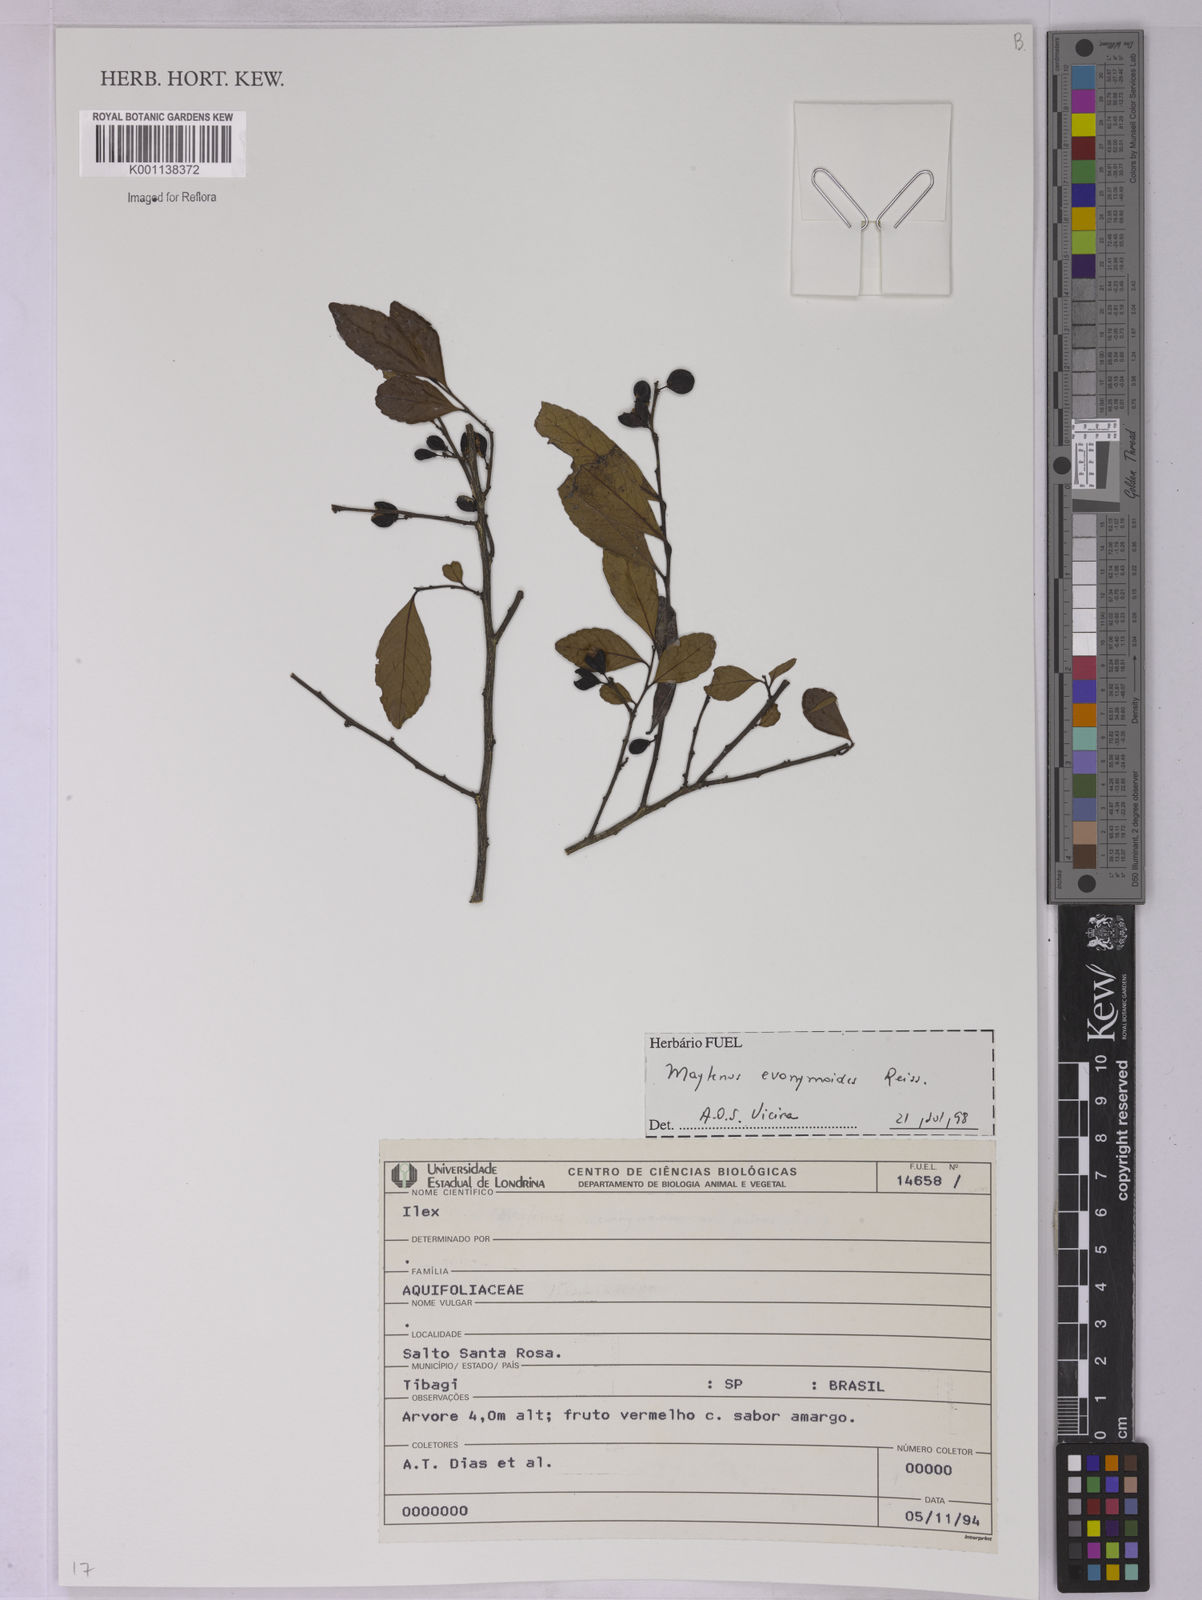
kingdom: Plantae
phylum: Tracheophyta
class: Magnoliopsida
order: Celastrales
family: Celastraceae
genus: Monteverdia
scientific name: Monteverdia evonymoides
